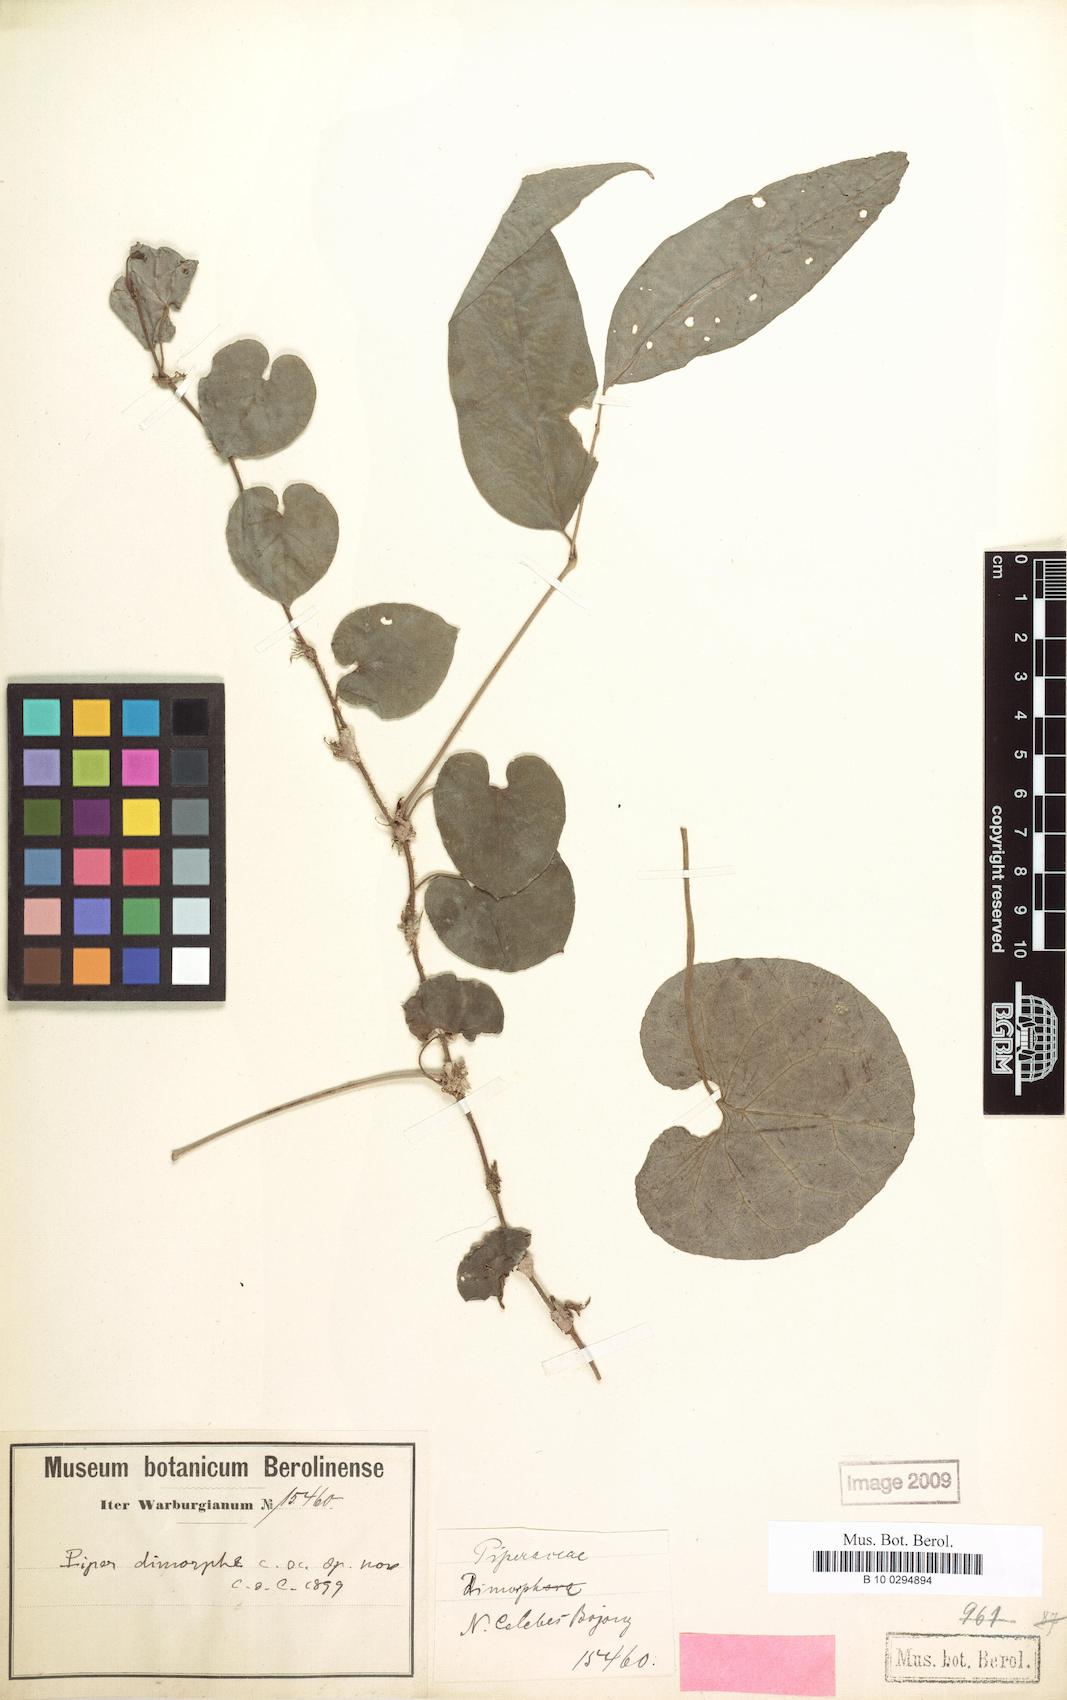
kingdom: Plantae
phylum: Tracheophyta
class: Magnoliopsida
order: Piperales
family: Piperaceae
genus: Piper
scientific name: Piper dimorphum
